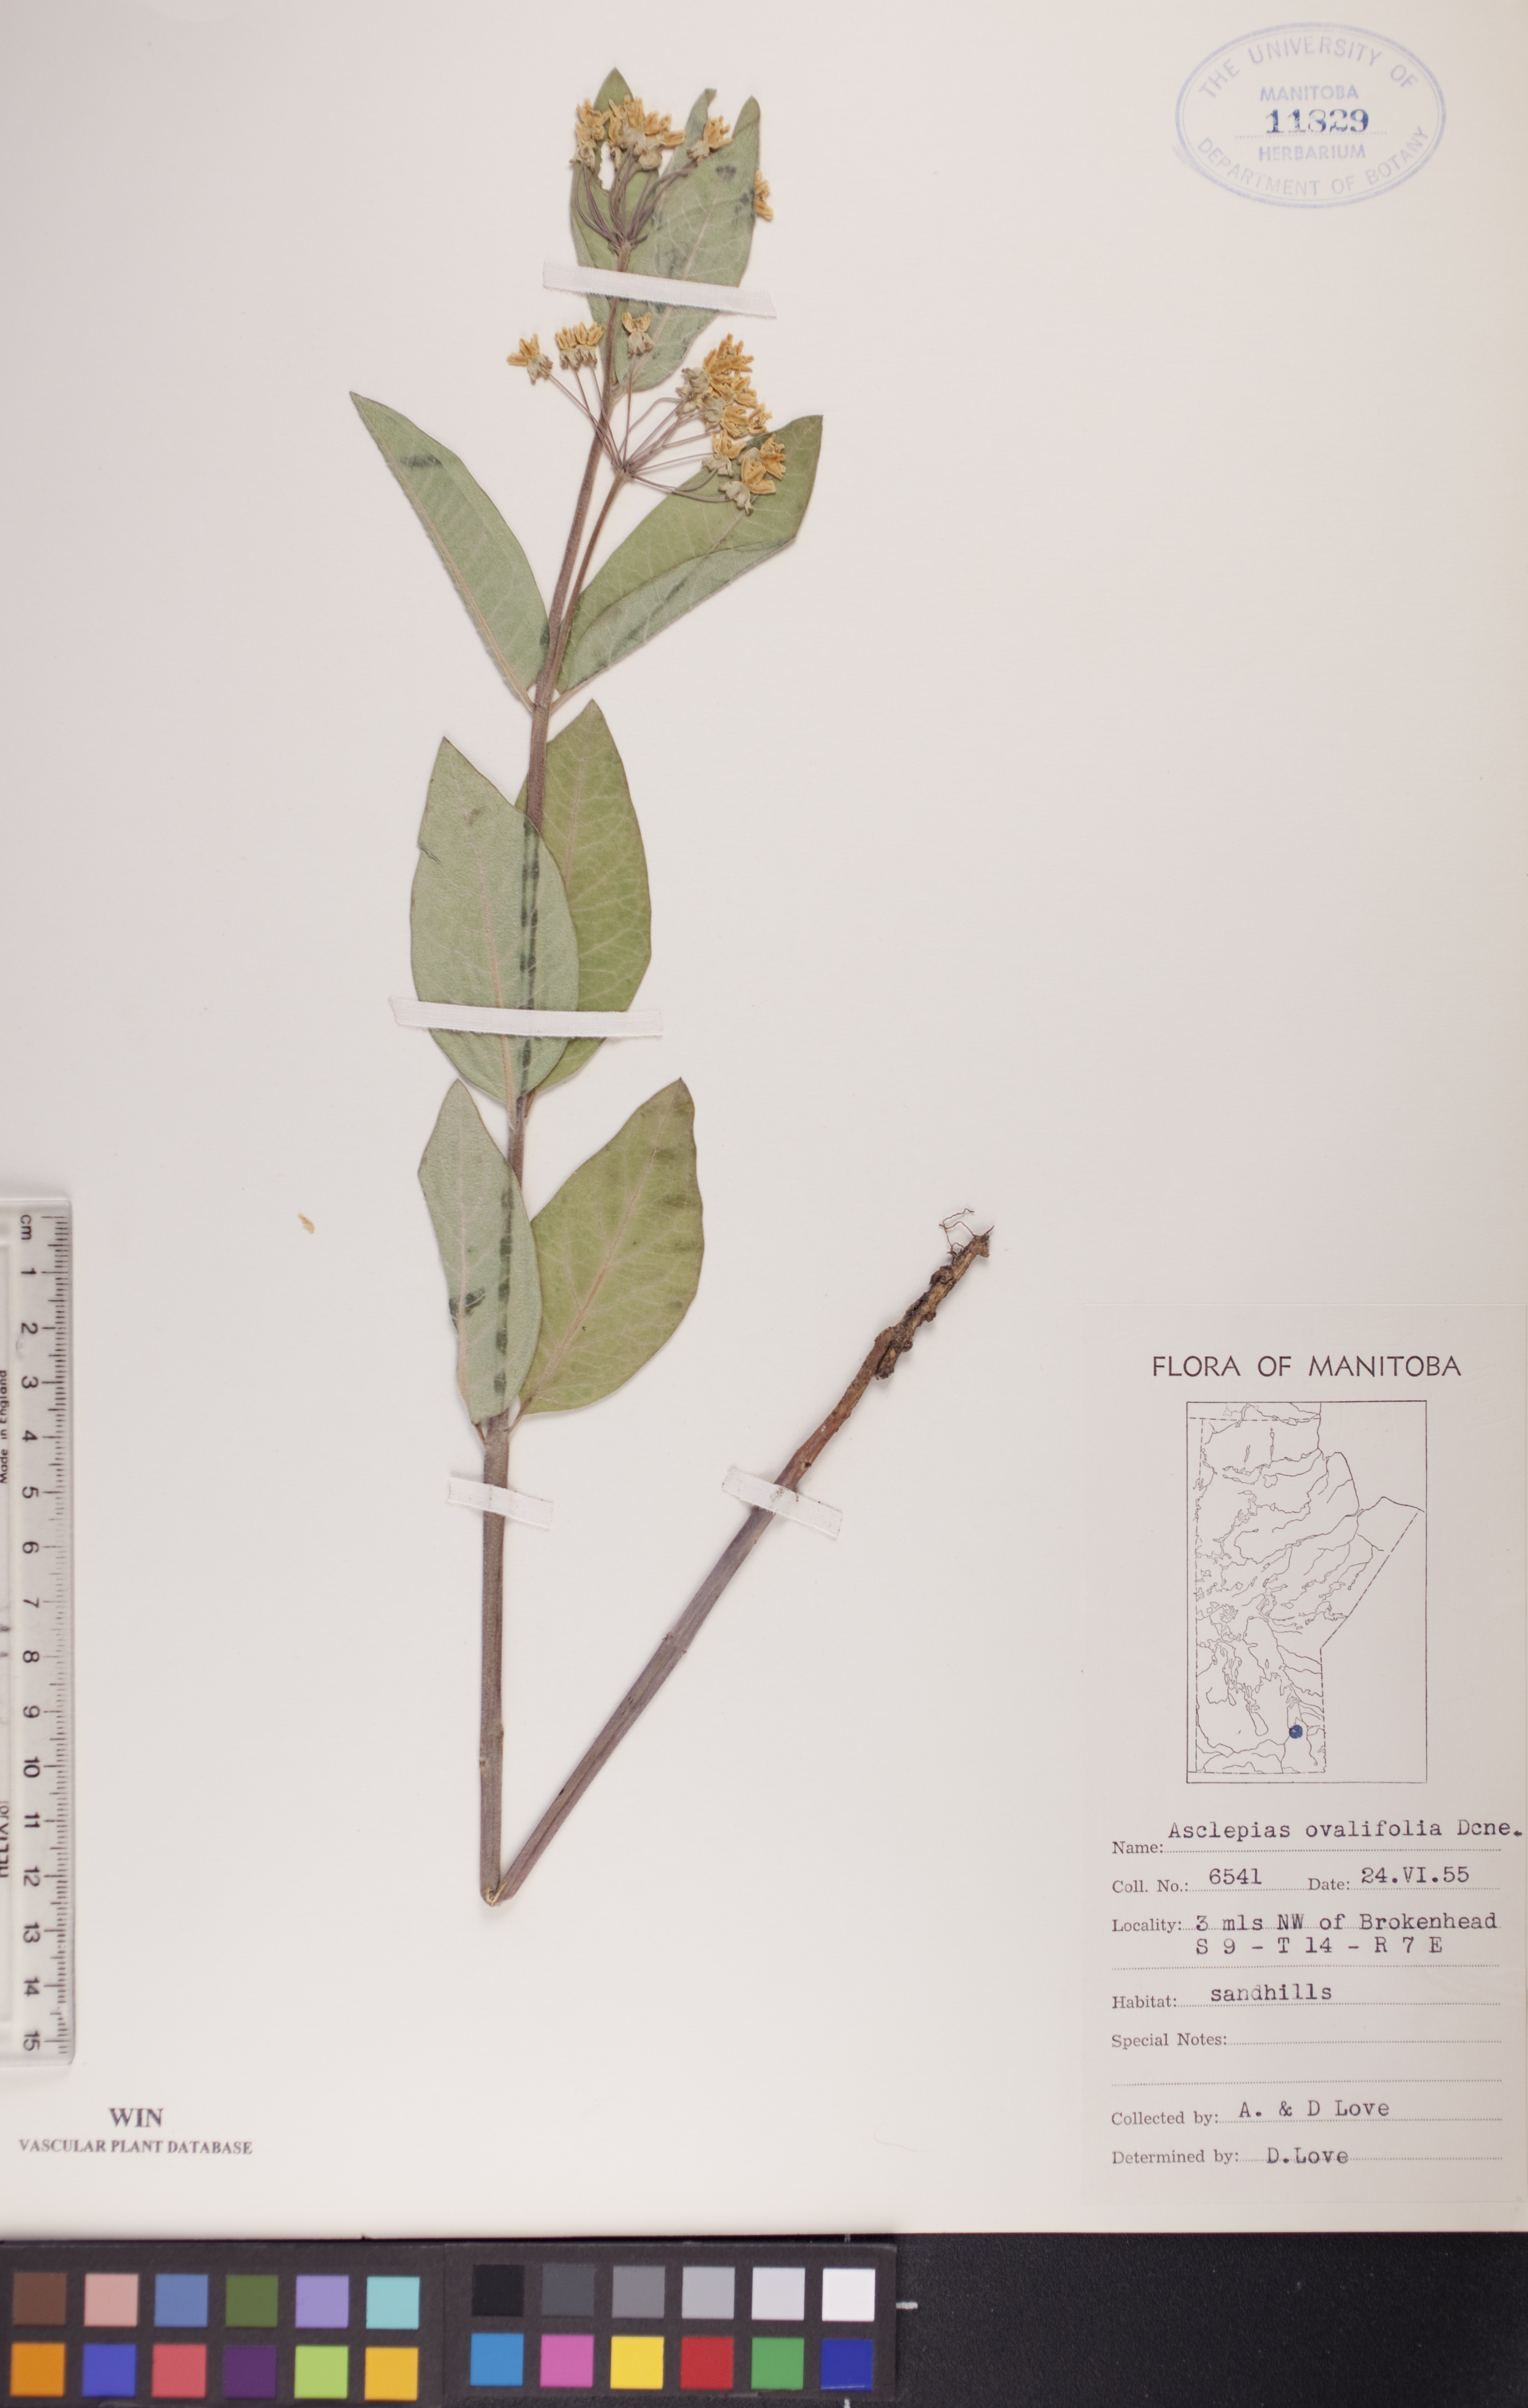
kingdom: Plantae
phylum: Tracheophyta
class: Magnoliopsida
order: Gentianales
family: Apocynaceae
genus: Asclepias
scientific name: Asclepias ovalifolia
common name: Dwarf milkweed
